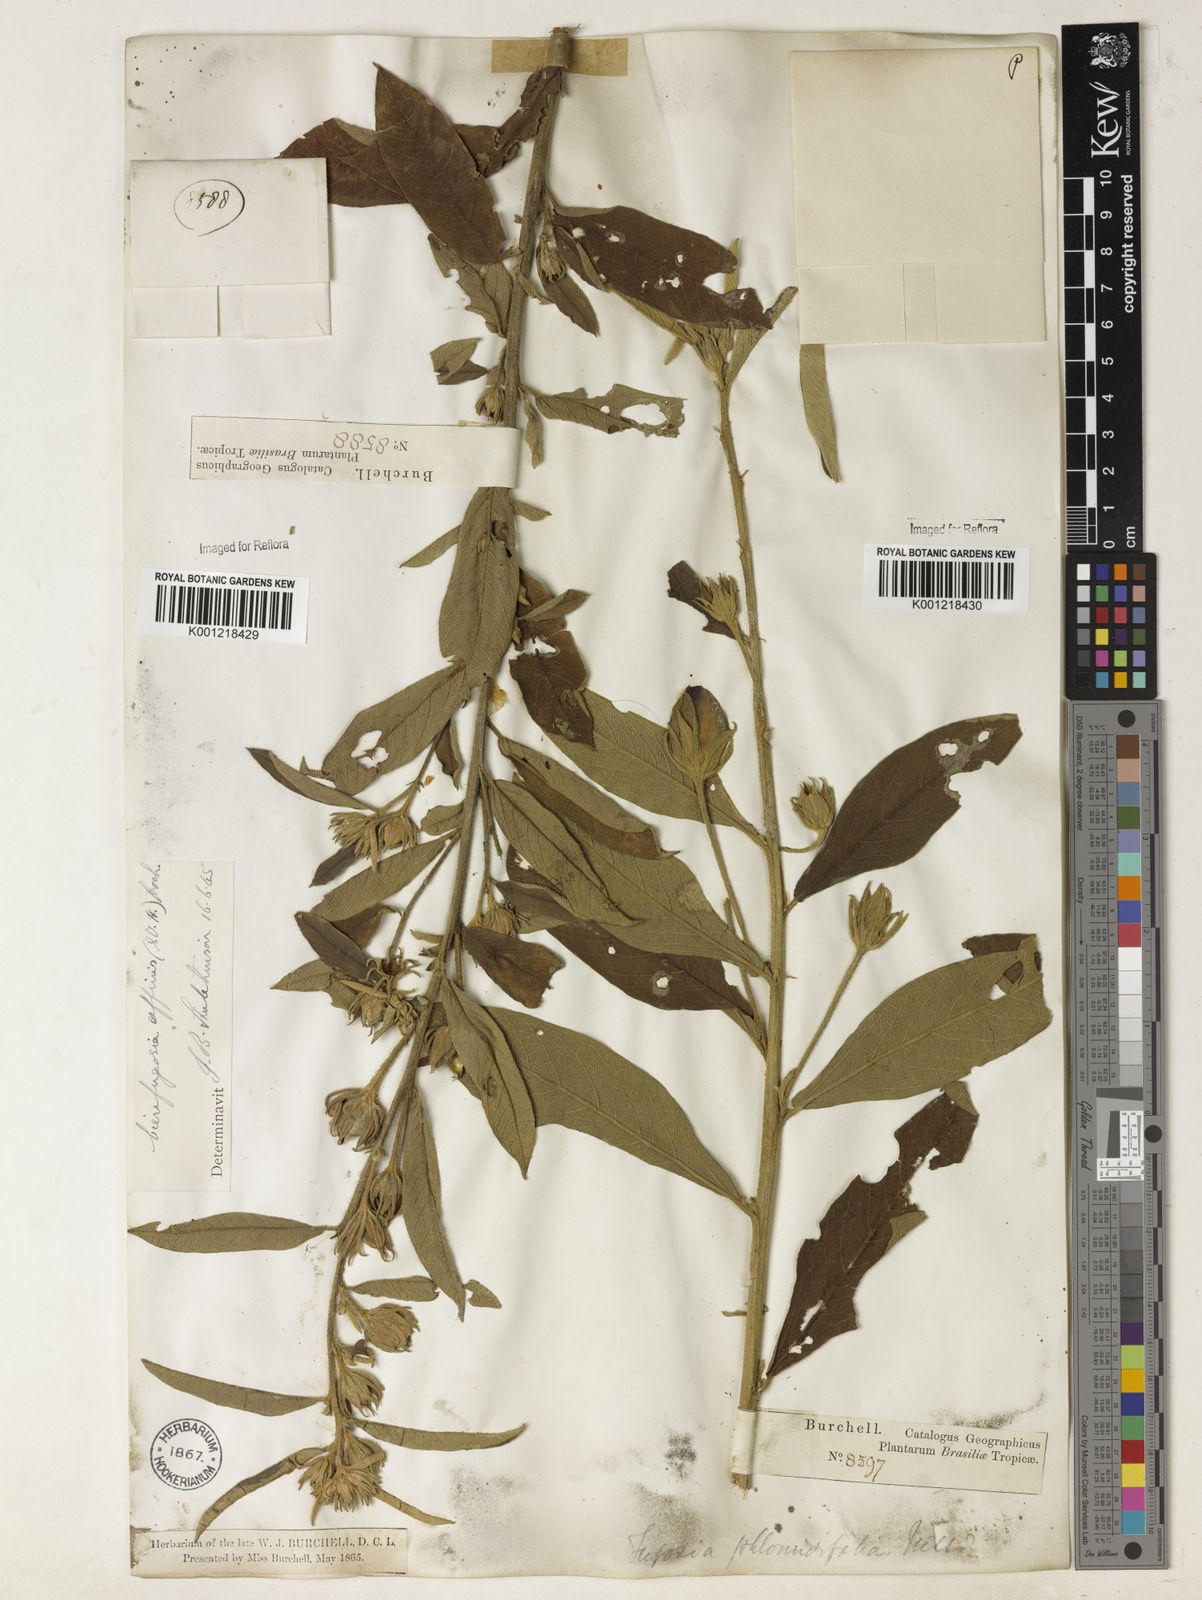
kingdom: Plantae
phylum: Tracheophyta
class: Magnoliopsida
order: Malvales
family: Malvaceae
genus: Cienfuegosia
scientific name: Cienfuegosia affinis
